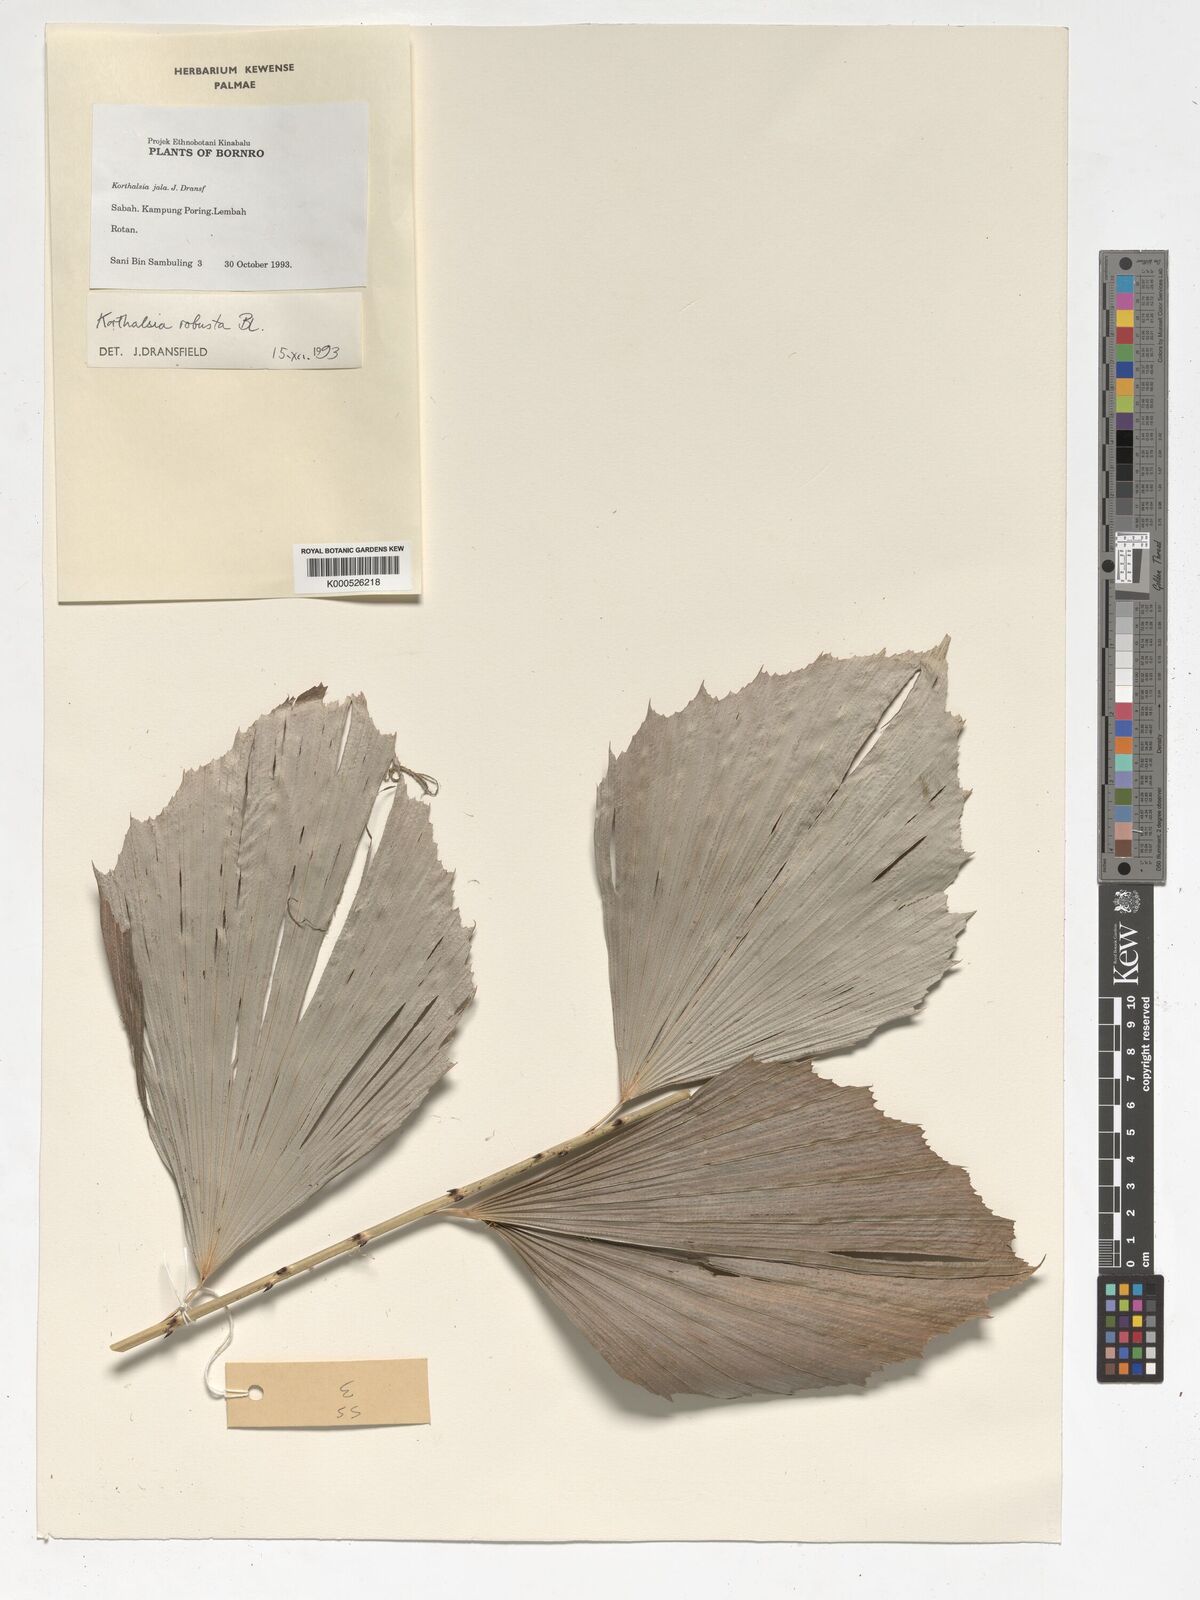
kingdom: Plantae
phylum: Tracheophyta
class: Liliopsida
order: Arecales
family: Arecaceae
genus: Korthalsia
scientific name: Korthalsia robusta
